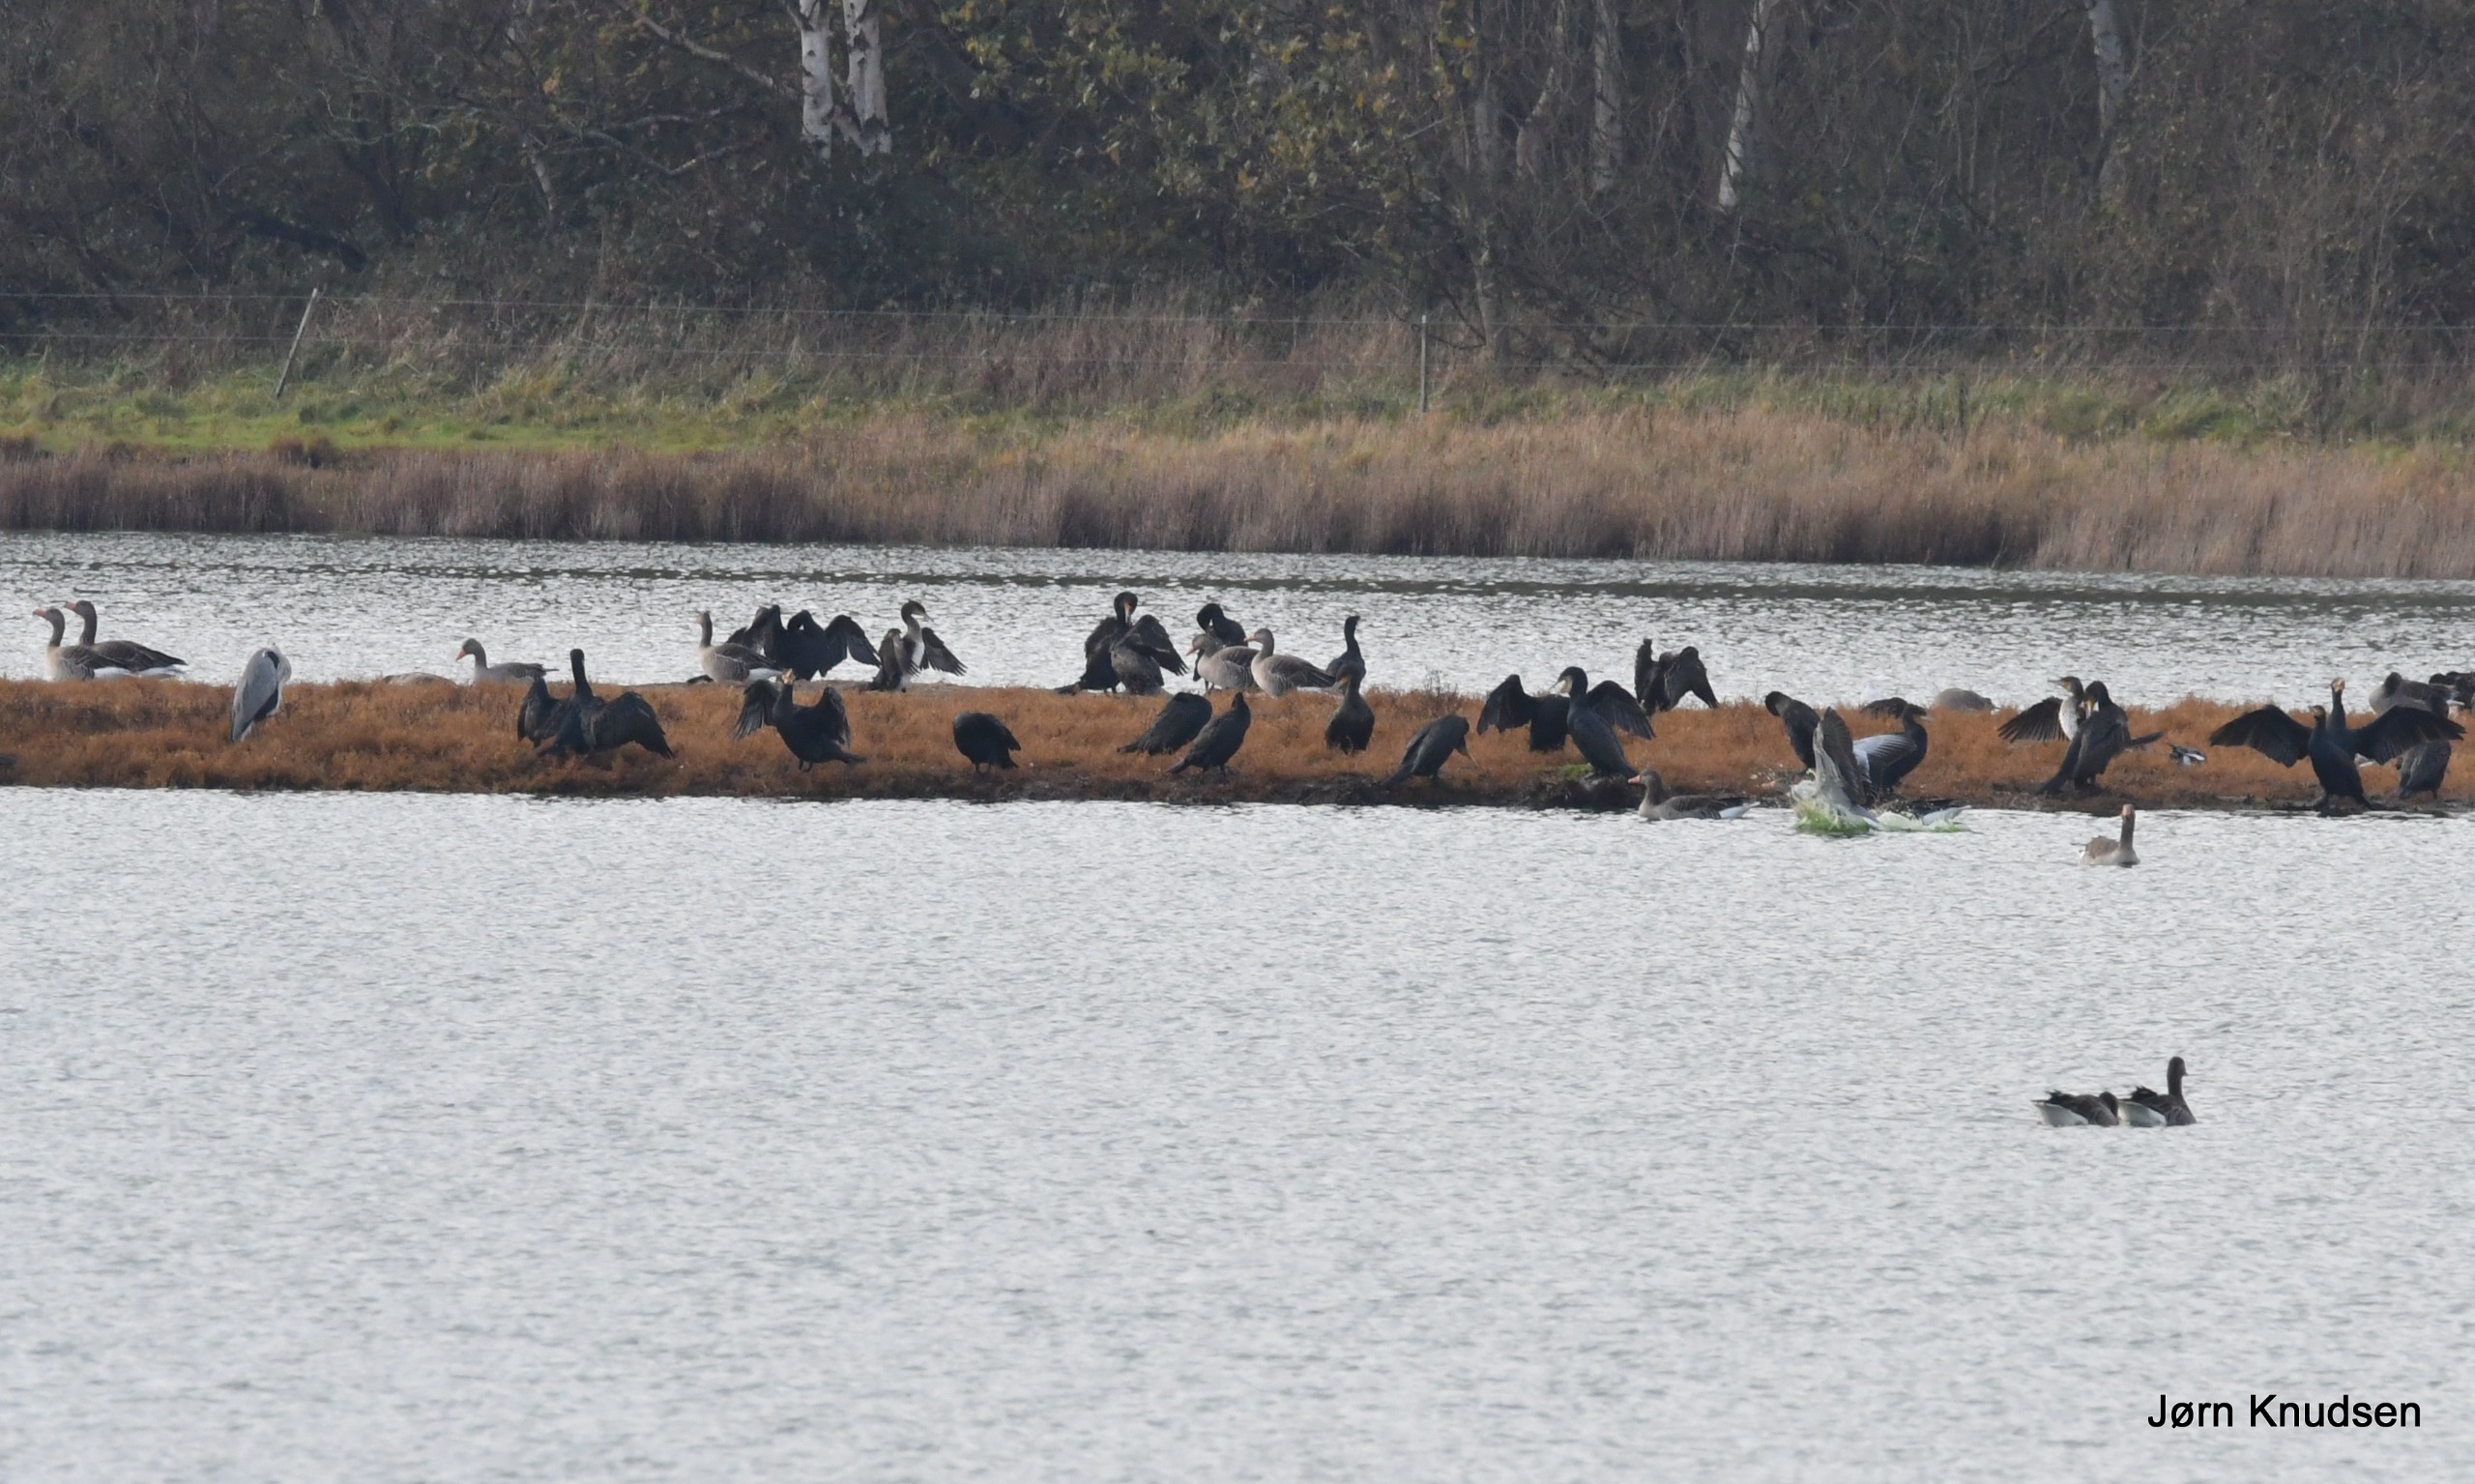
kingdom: Animalia
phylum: Chordata
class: Aves
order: Pelecaniformes
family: Ardeidae
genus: Ardea
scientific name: Ardea cinerea
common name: Fiskehejre
